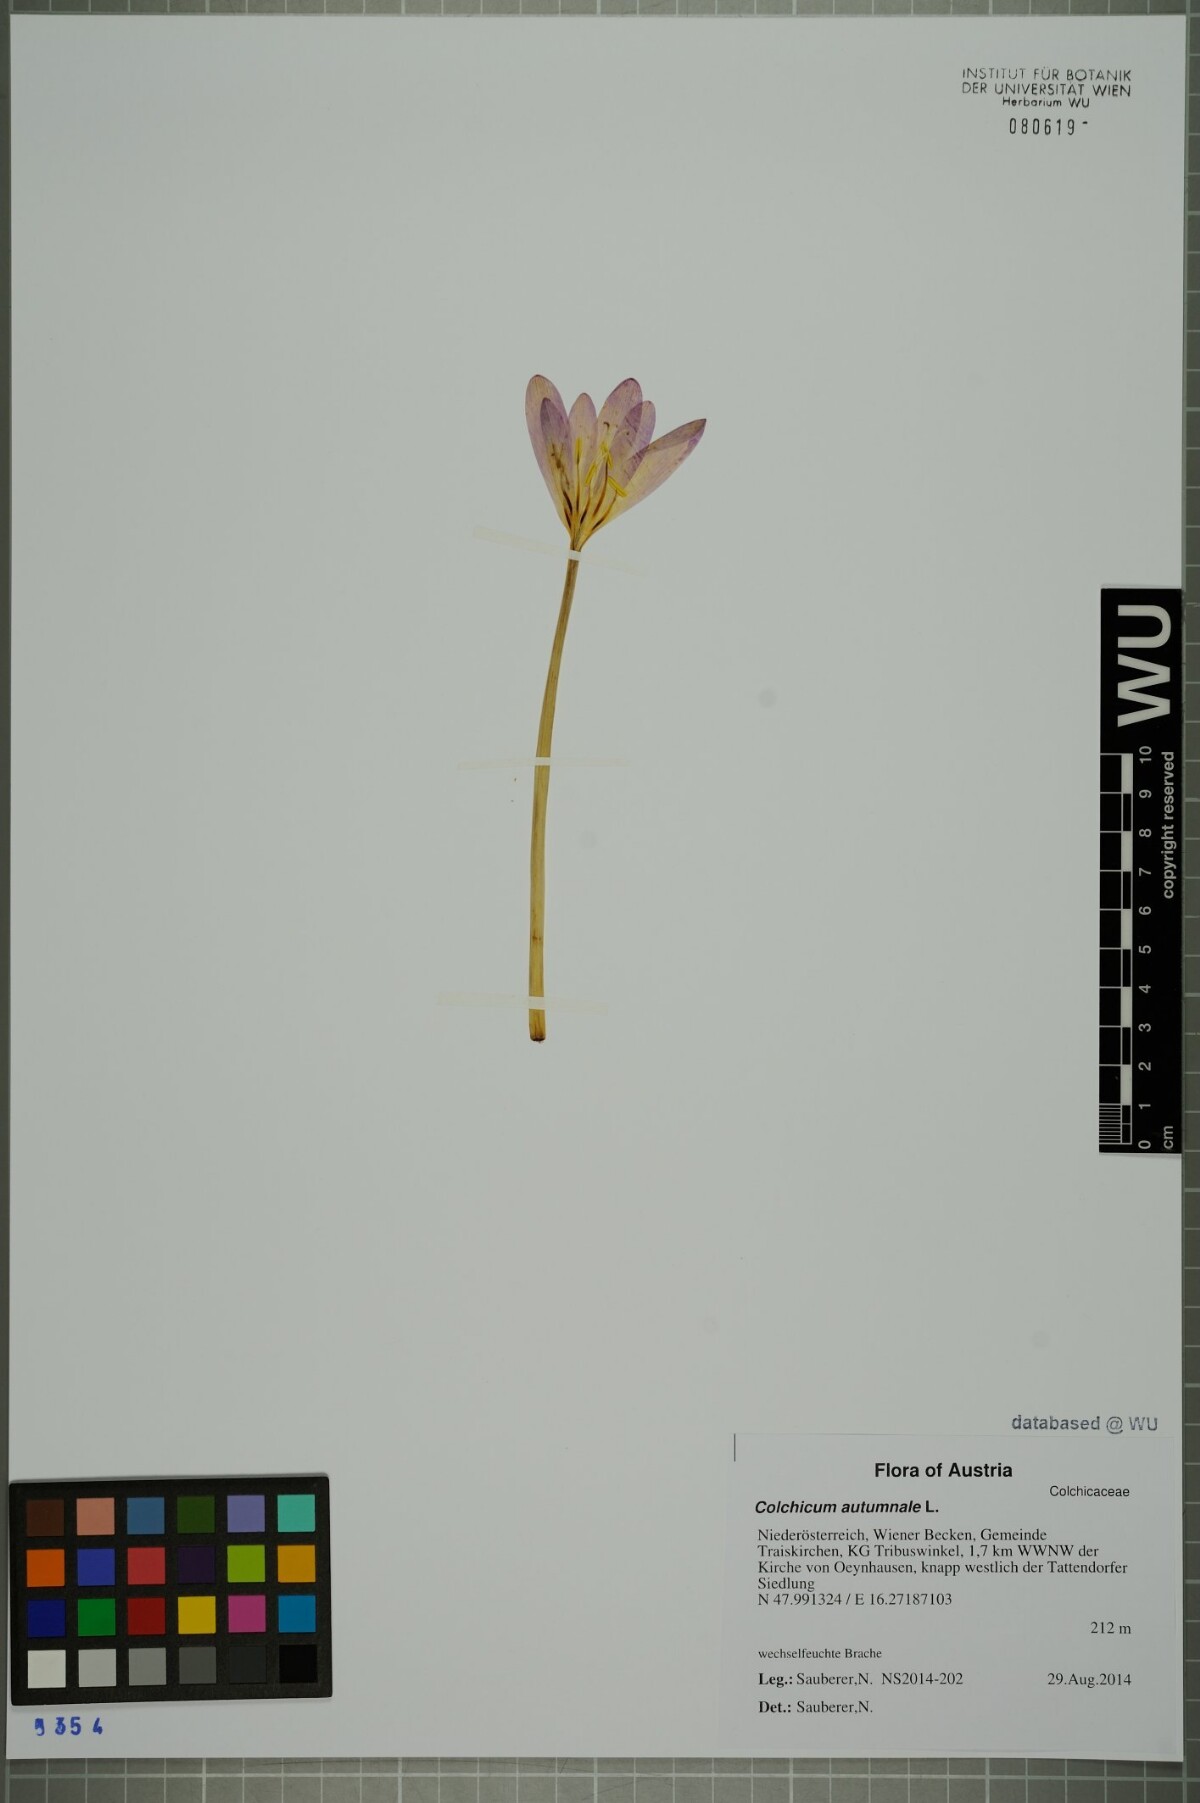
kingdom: Plantae
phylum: Tracheophyta
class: Liliopsida
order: Liliales
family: Colchicaceae
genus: Colchicum
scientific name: Colchicum autumnale
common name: Autumn crocus
